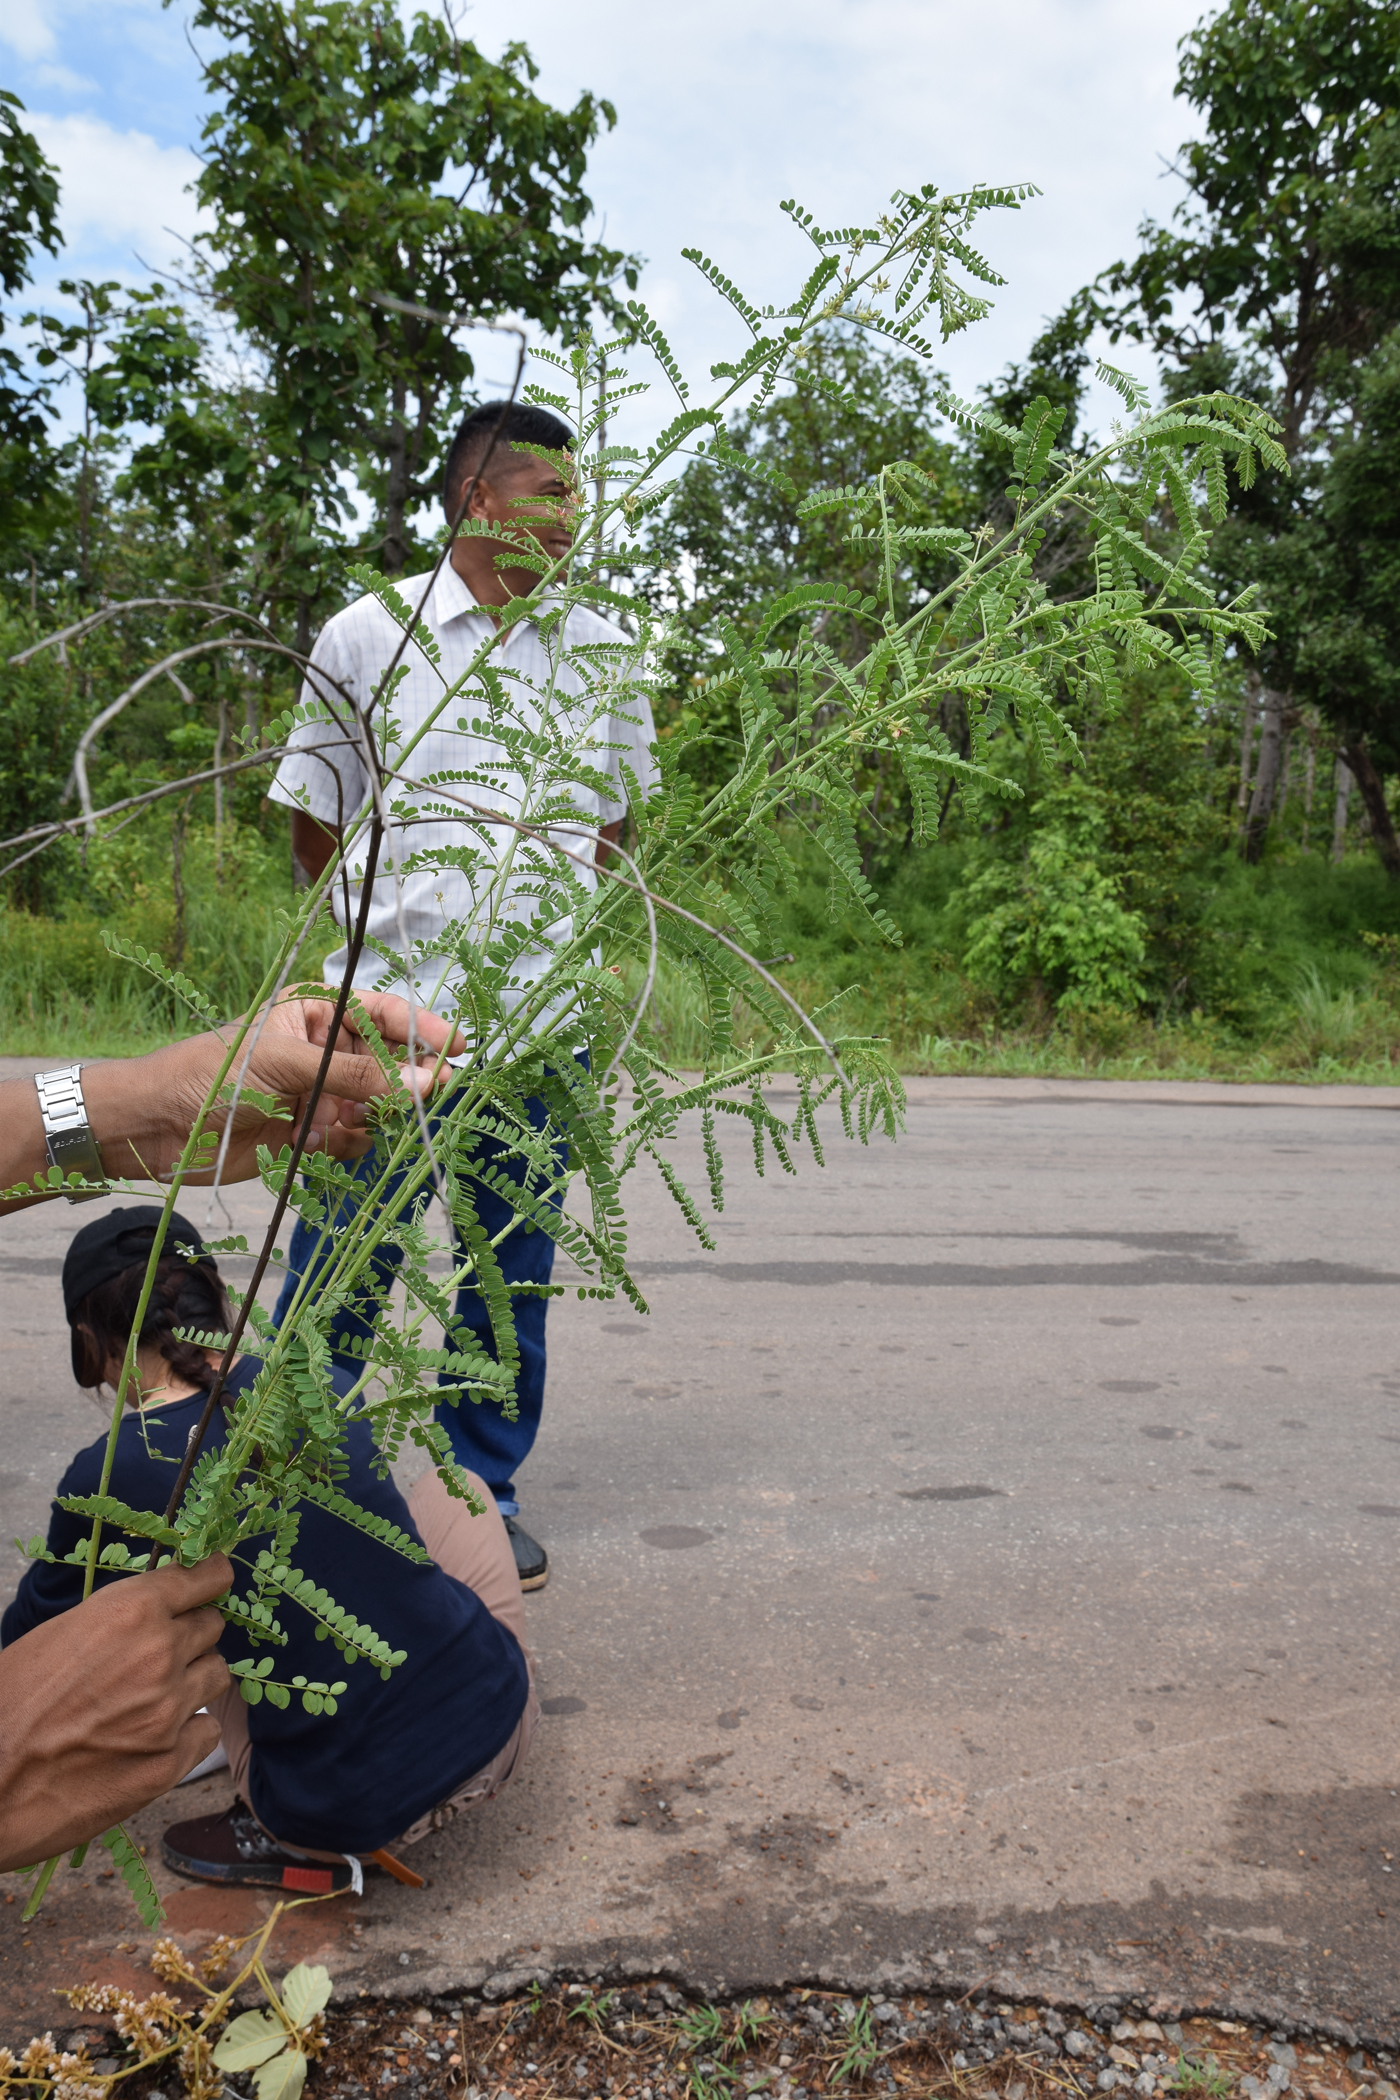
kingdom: Plantae
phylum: Tracheophyta
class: Magnoliopsida
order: Fabales
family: Fabaceae
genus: Indigofera
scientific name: Indigofera wightii
